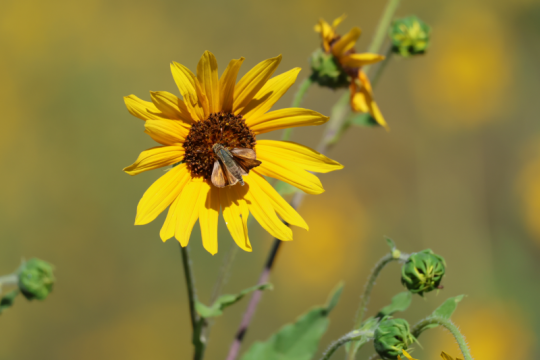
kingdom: Animalia
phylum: Arthropoda
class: Insecta
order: Lepidoptera
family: Hesperiidae
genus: Oarisma
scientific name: Oarisma garita
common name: Garita Skipperling
